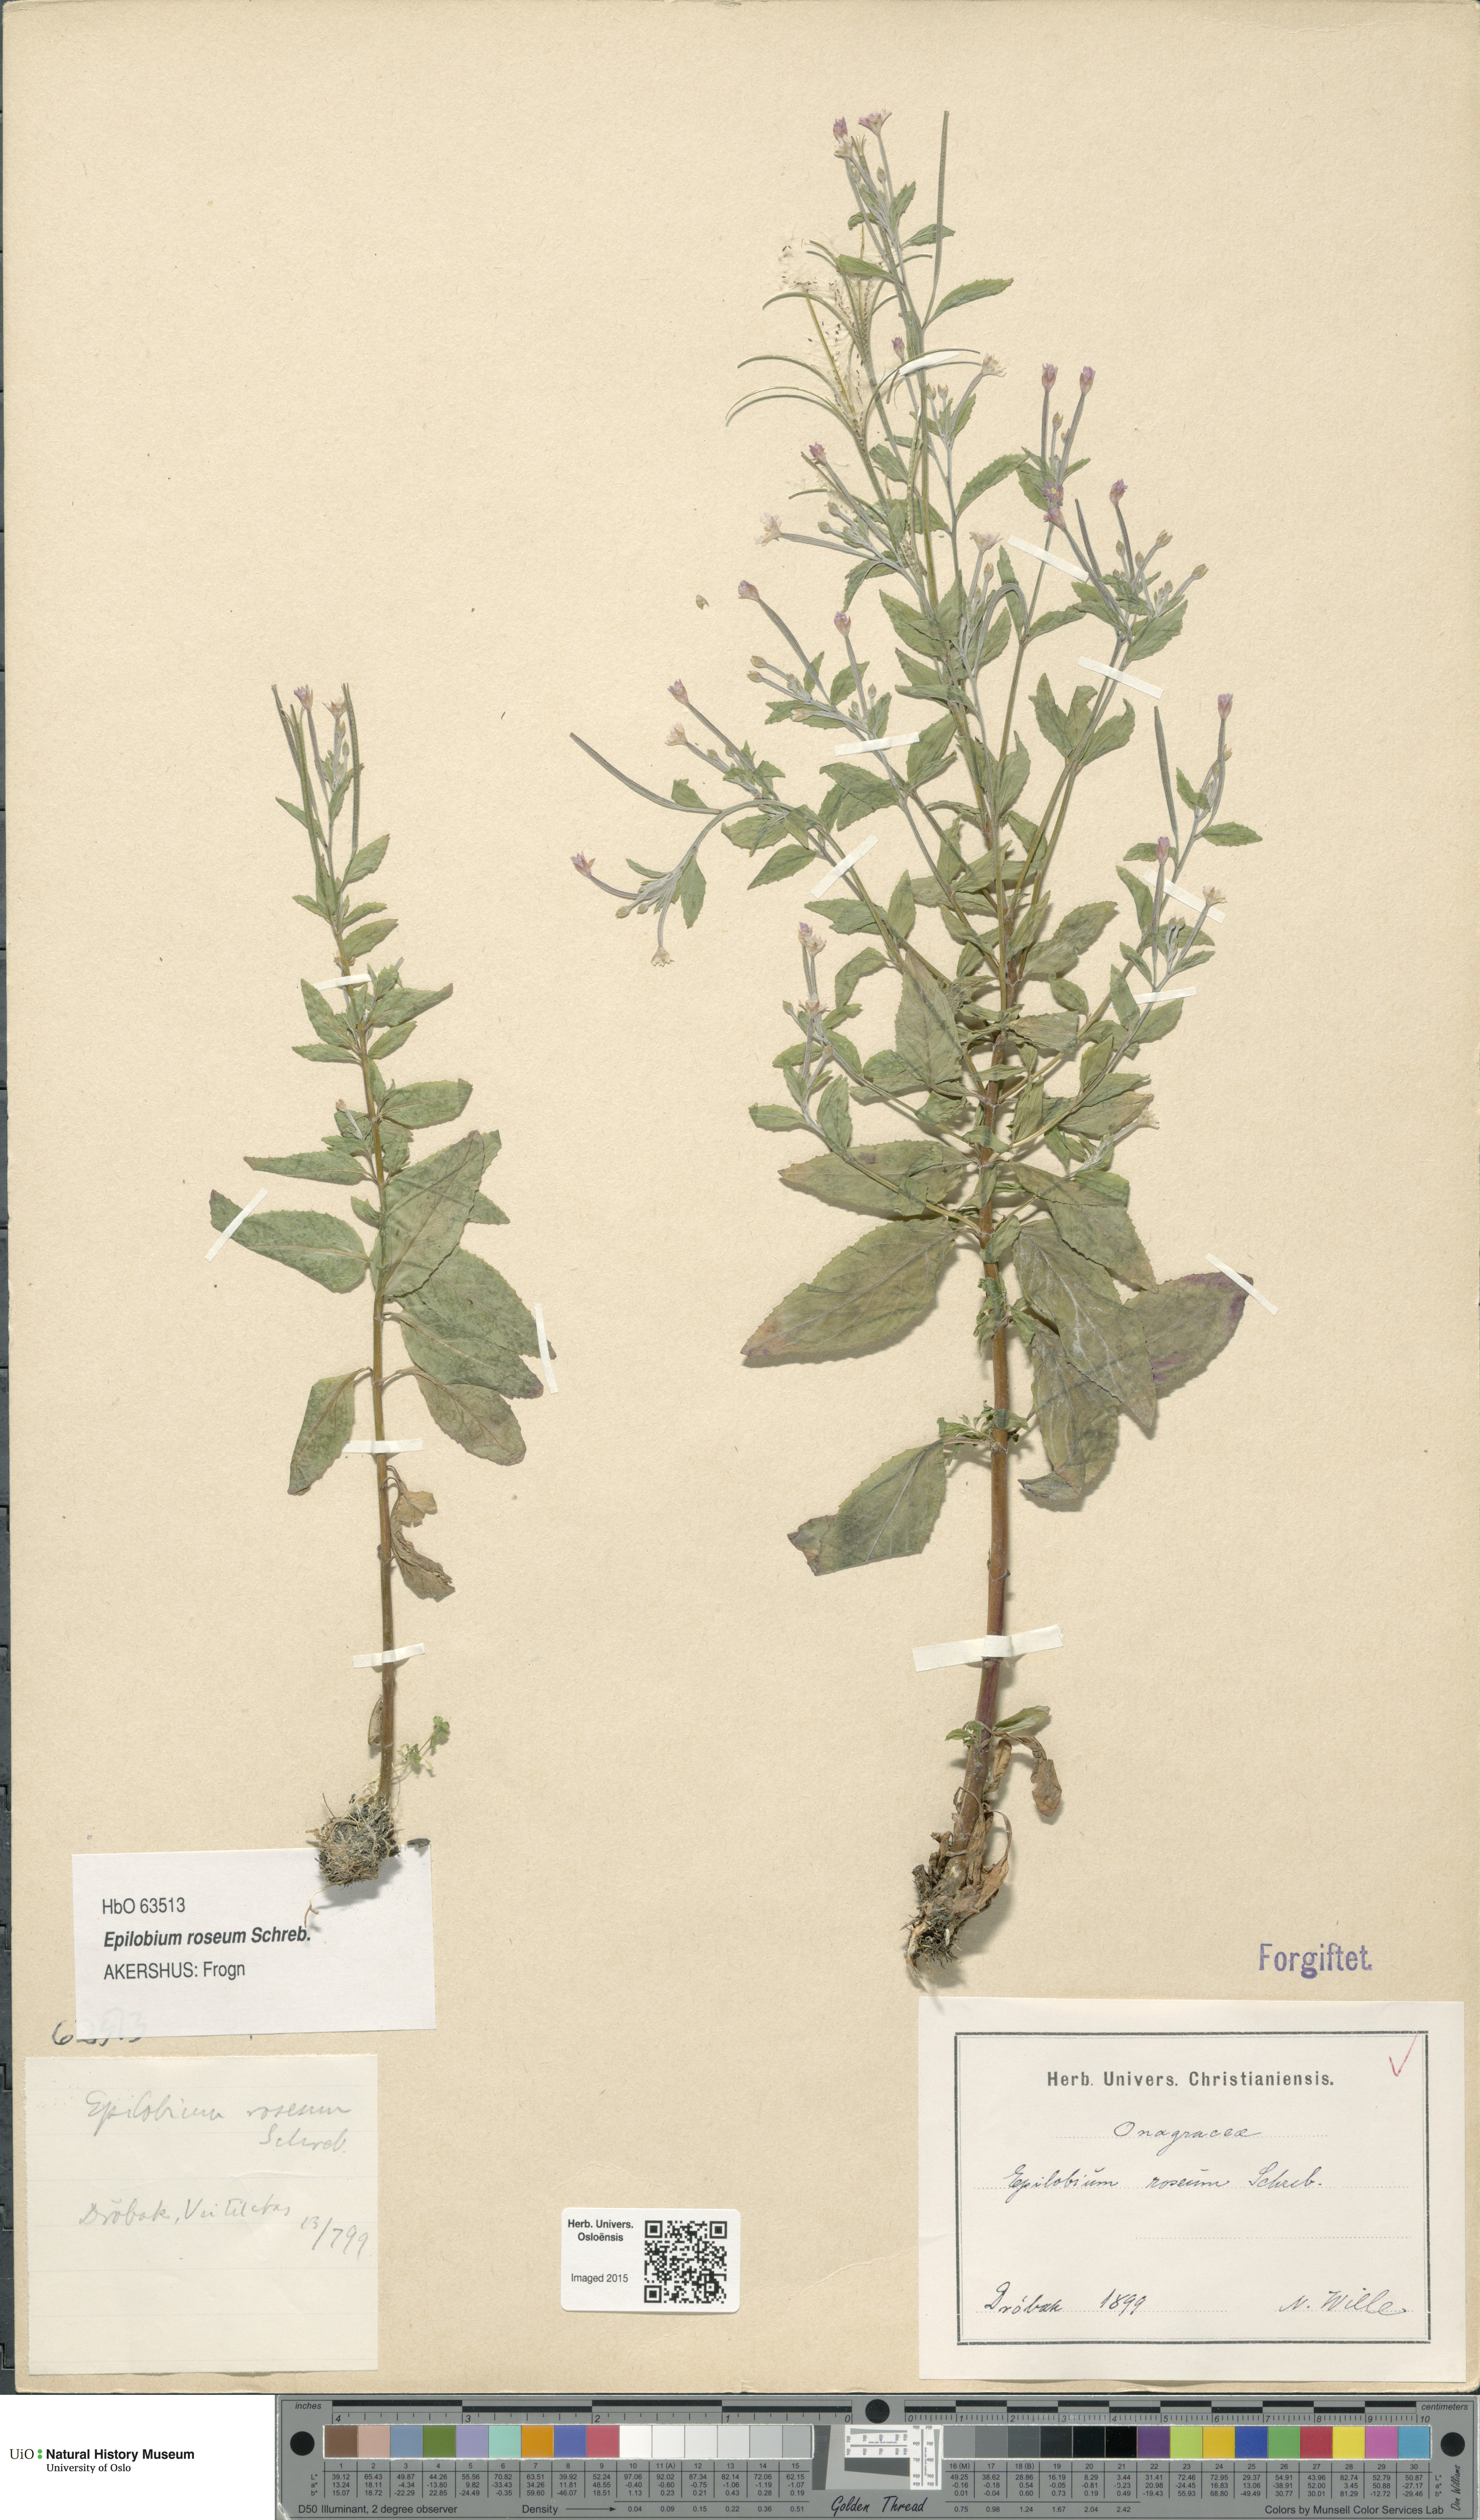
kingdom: Plantae
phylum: Tracheophyta
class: Magnoliopsida
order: Myrtales
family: Onagraceae
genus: Epilobium
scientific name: Epilobium roseum
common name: Pale willowherb
